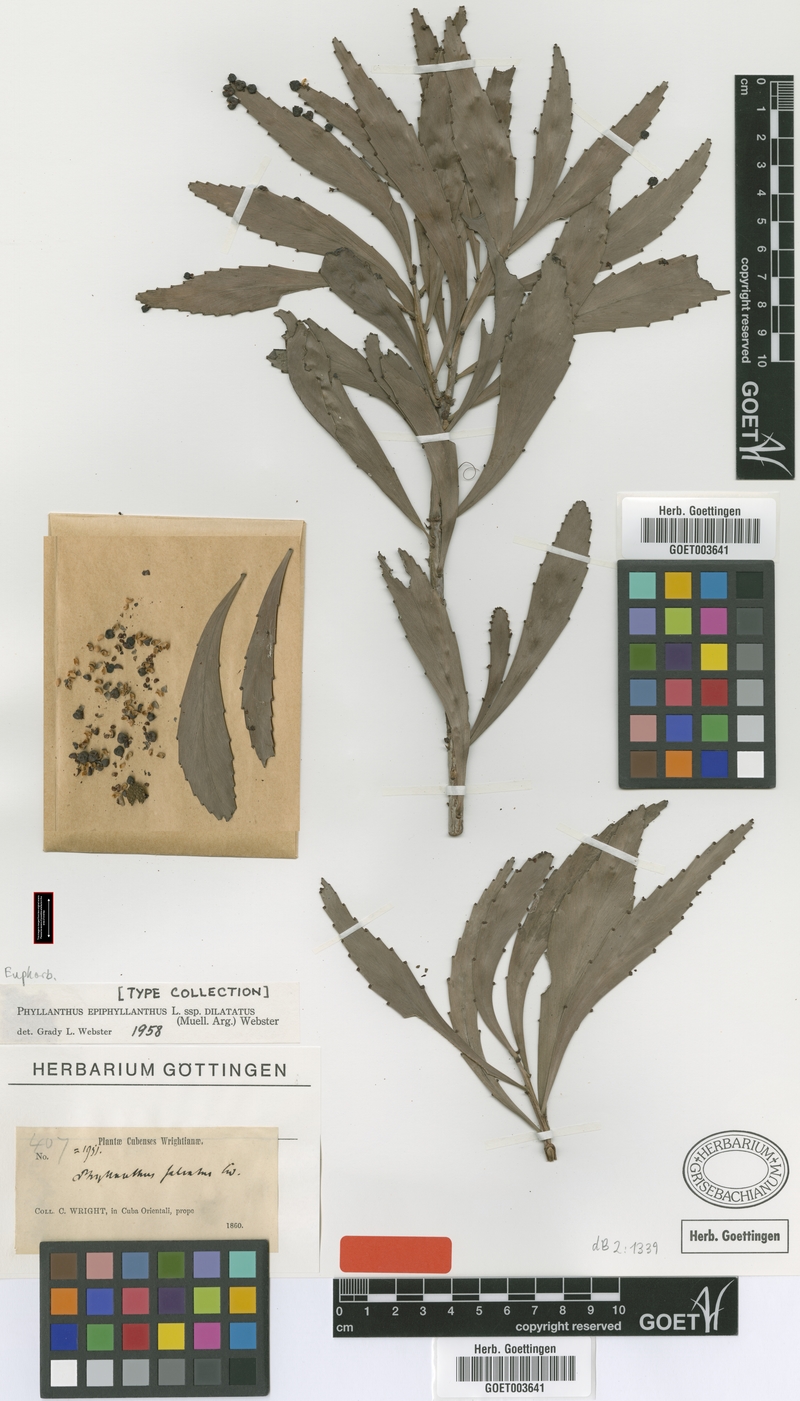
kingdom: Plantae
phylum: Tracheophyta
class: Magnoliopsida
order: Malpighiales
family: Phyllanthaceae
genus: Phyllanthus
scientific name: Phyllanthus epiphyllanthus
